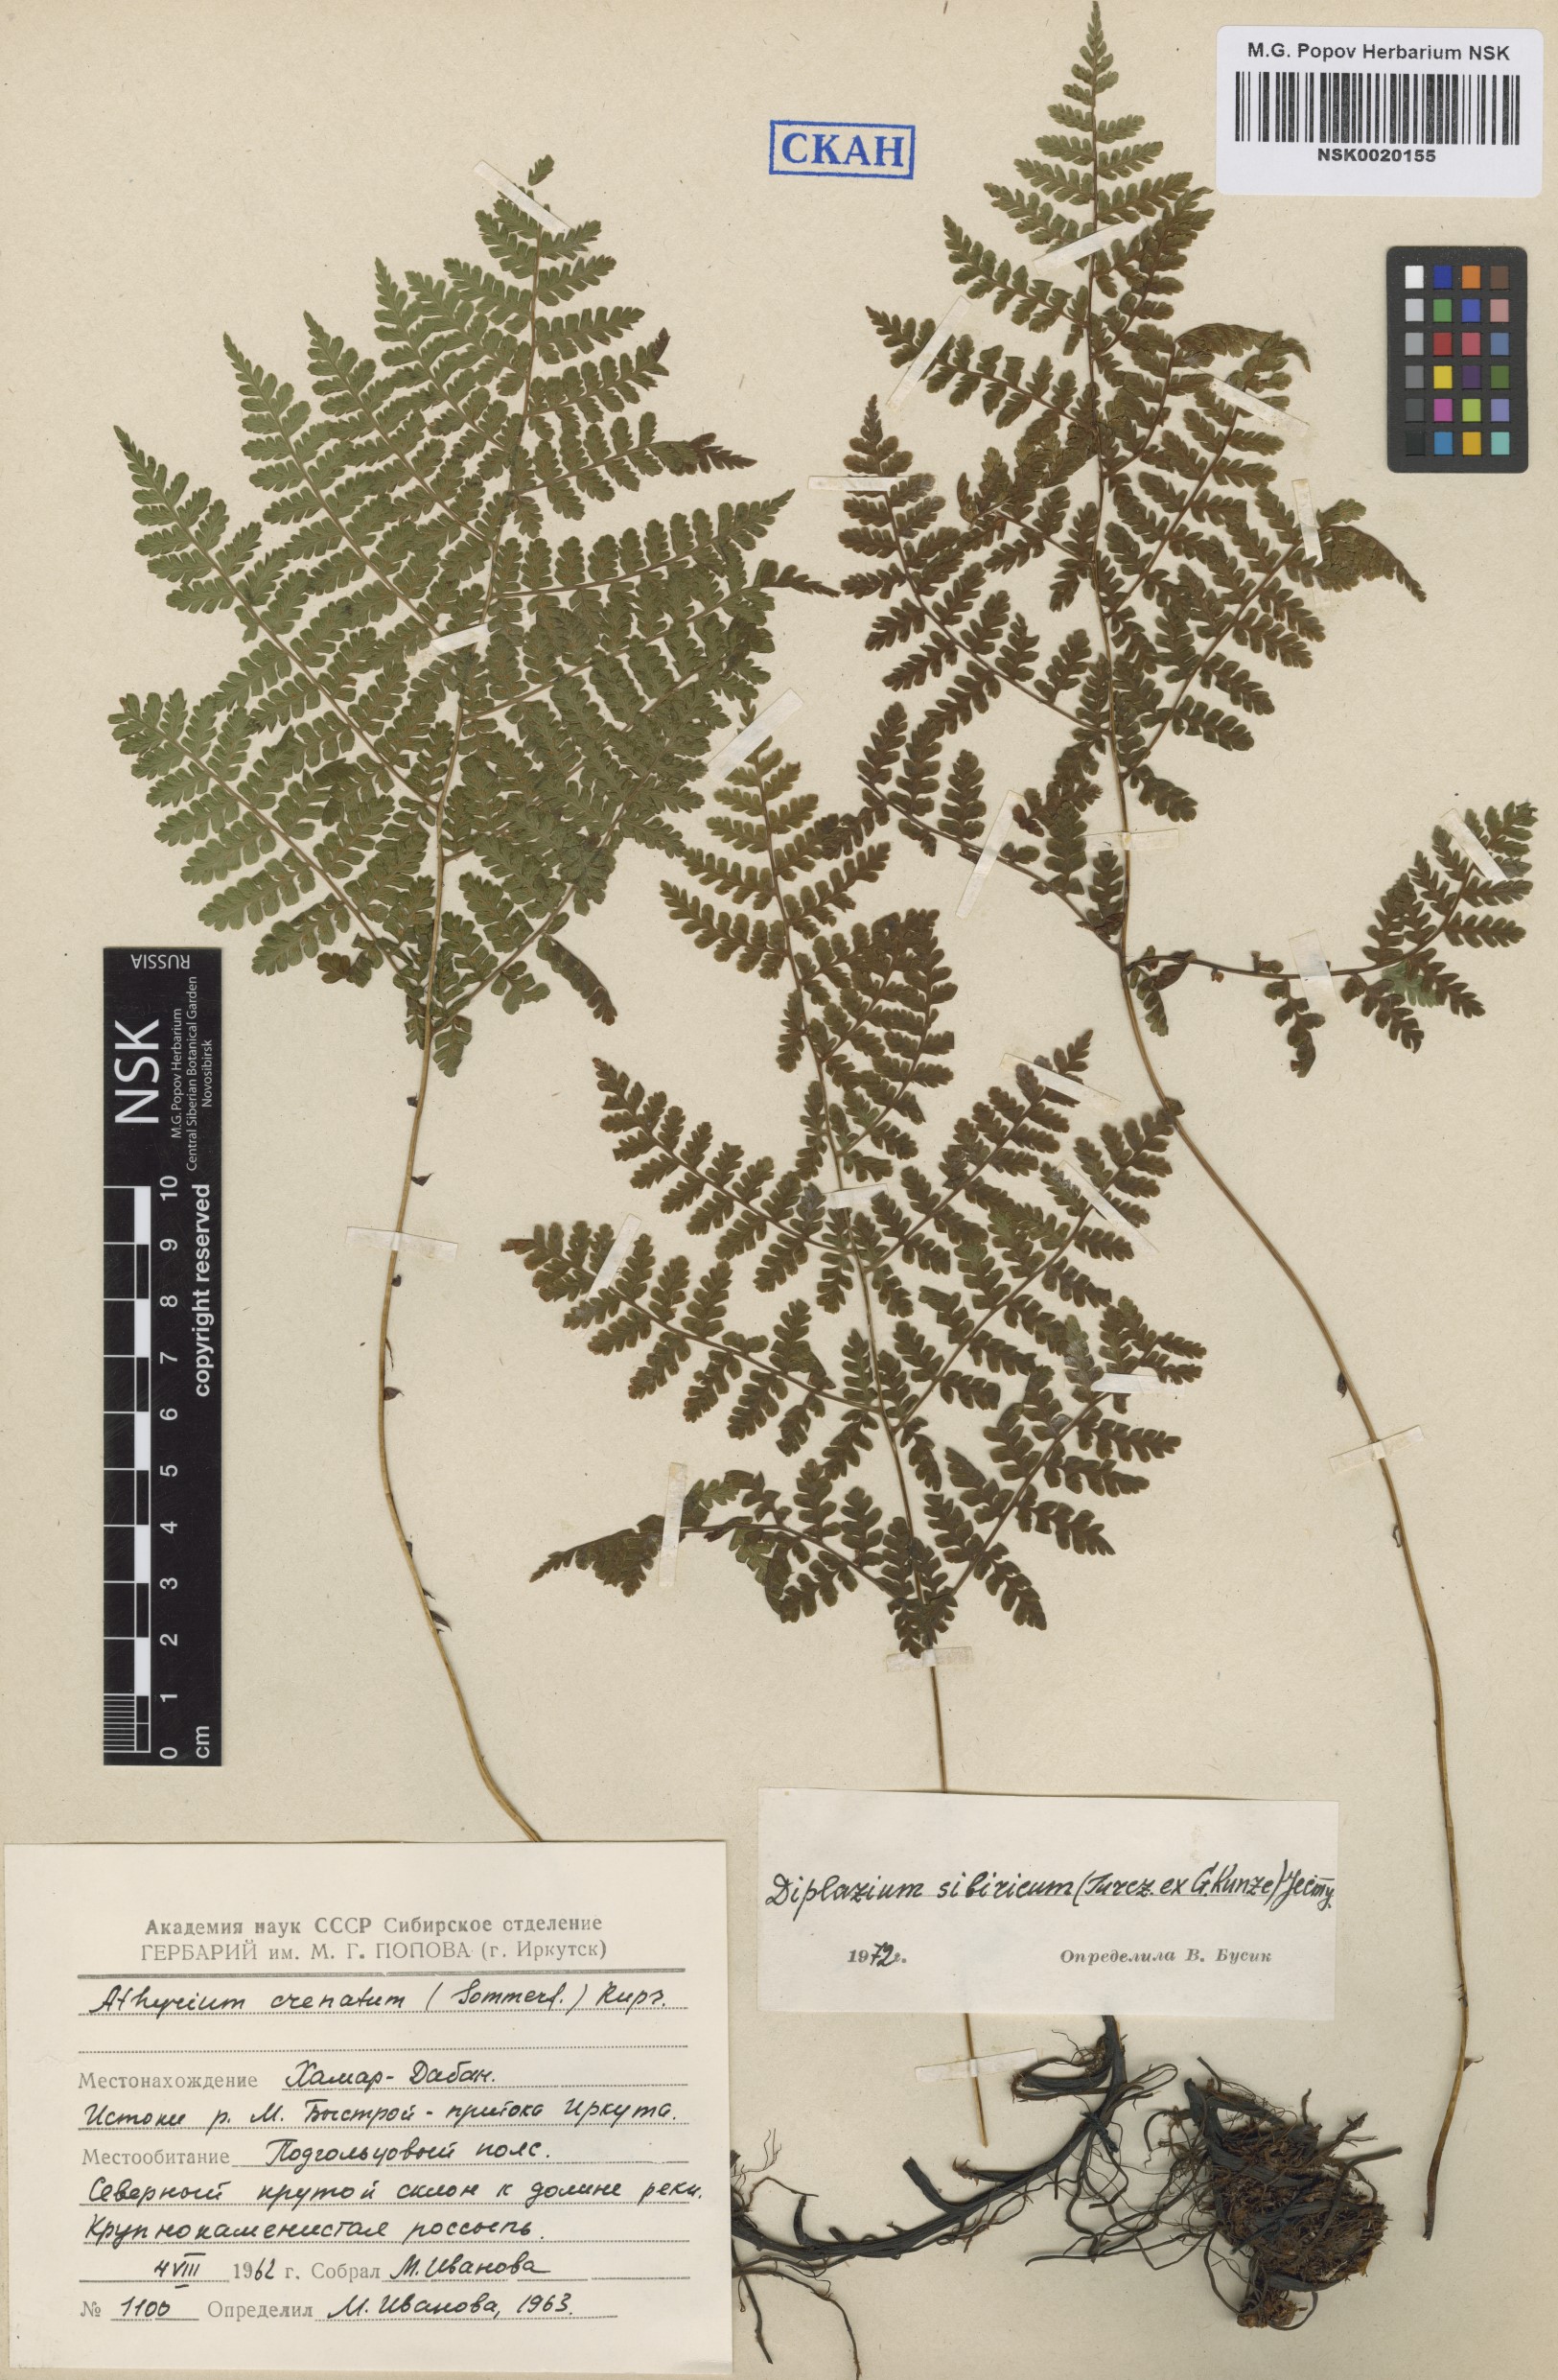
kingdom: Plantae
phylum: Tracheophyta
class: Polypodiopsida
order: Polypodiales
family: Athyriaceae
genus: Diplazium
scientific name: Diplazium sibiricum
